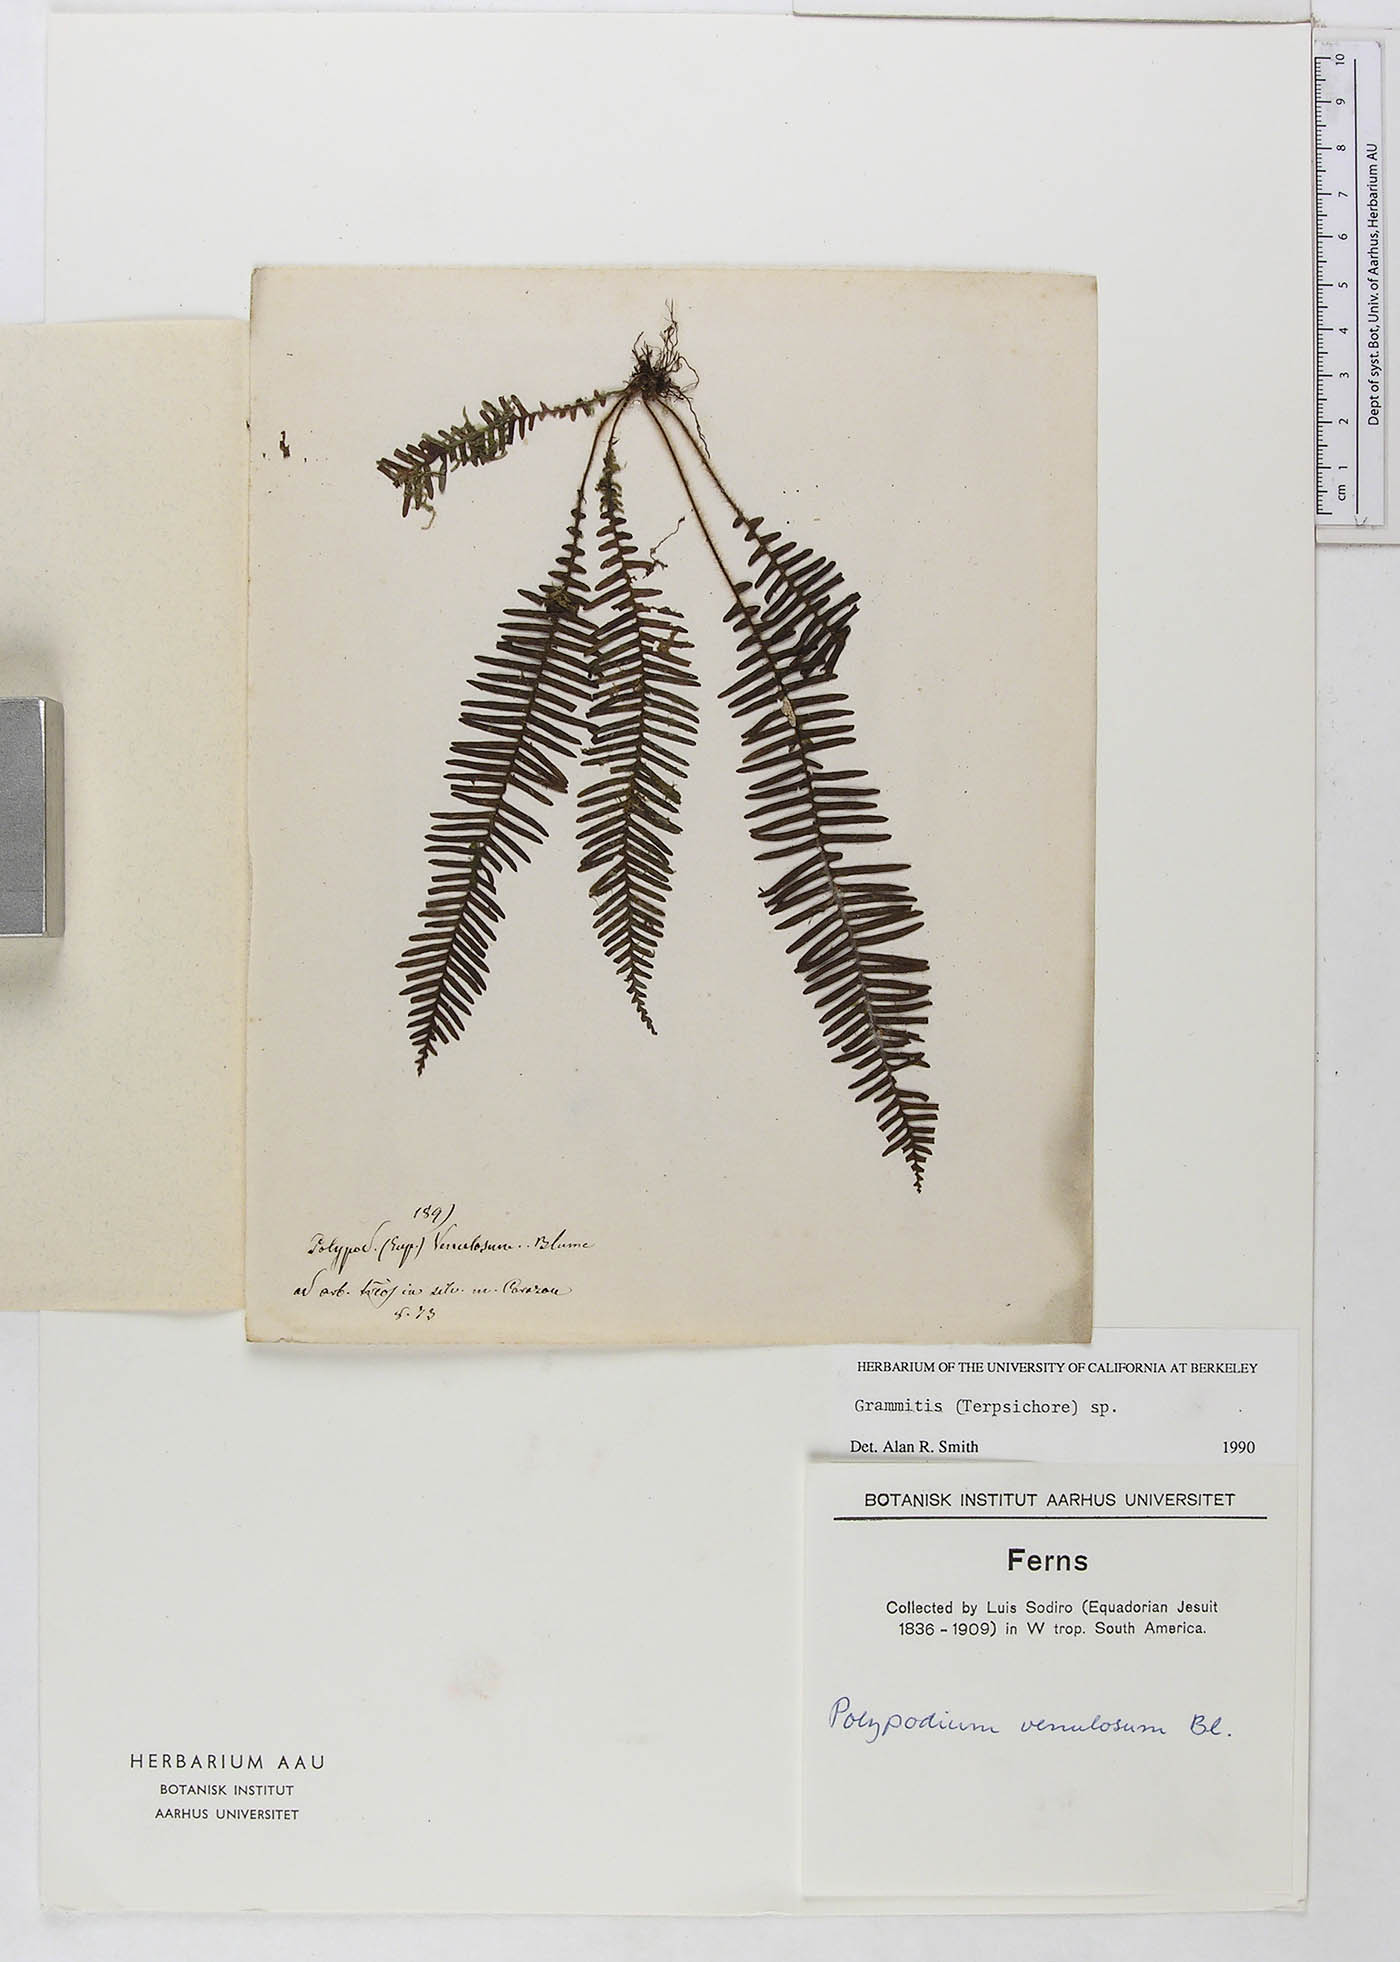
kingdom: Plantae
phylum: Tracheophyta
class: Polypodiopsida
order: Polypodiales
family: Polypodiaceae
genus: Grammitis
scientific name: Grammitis
